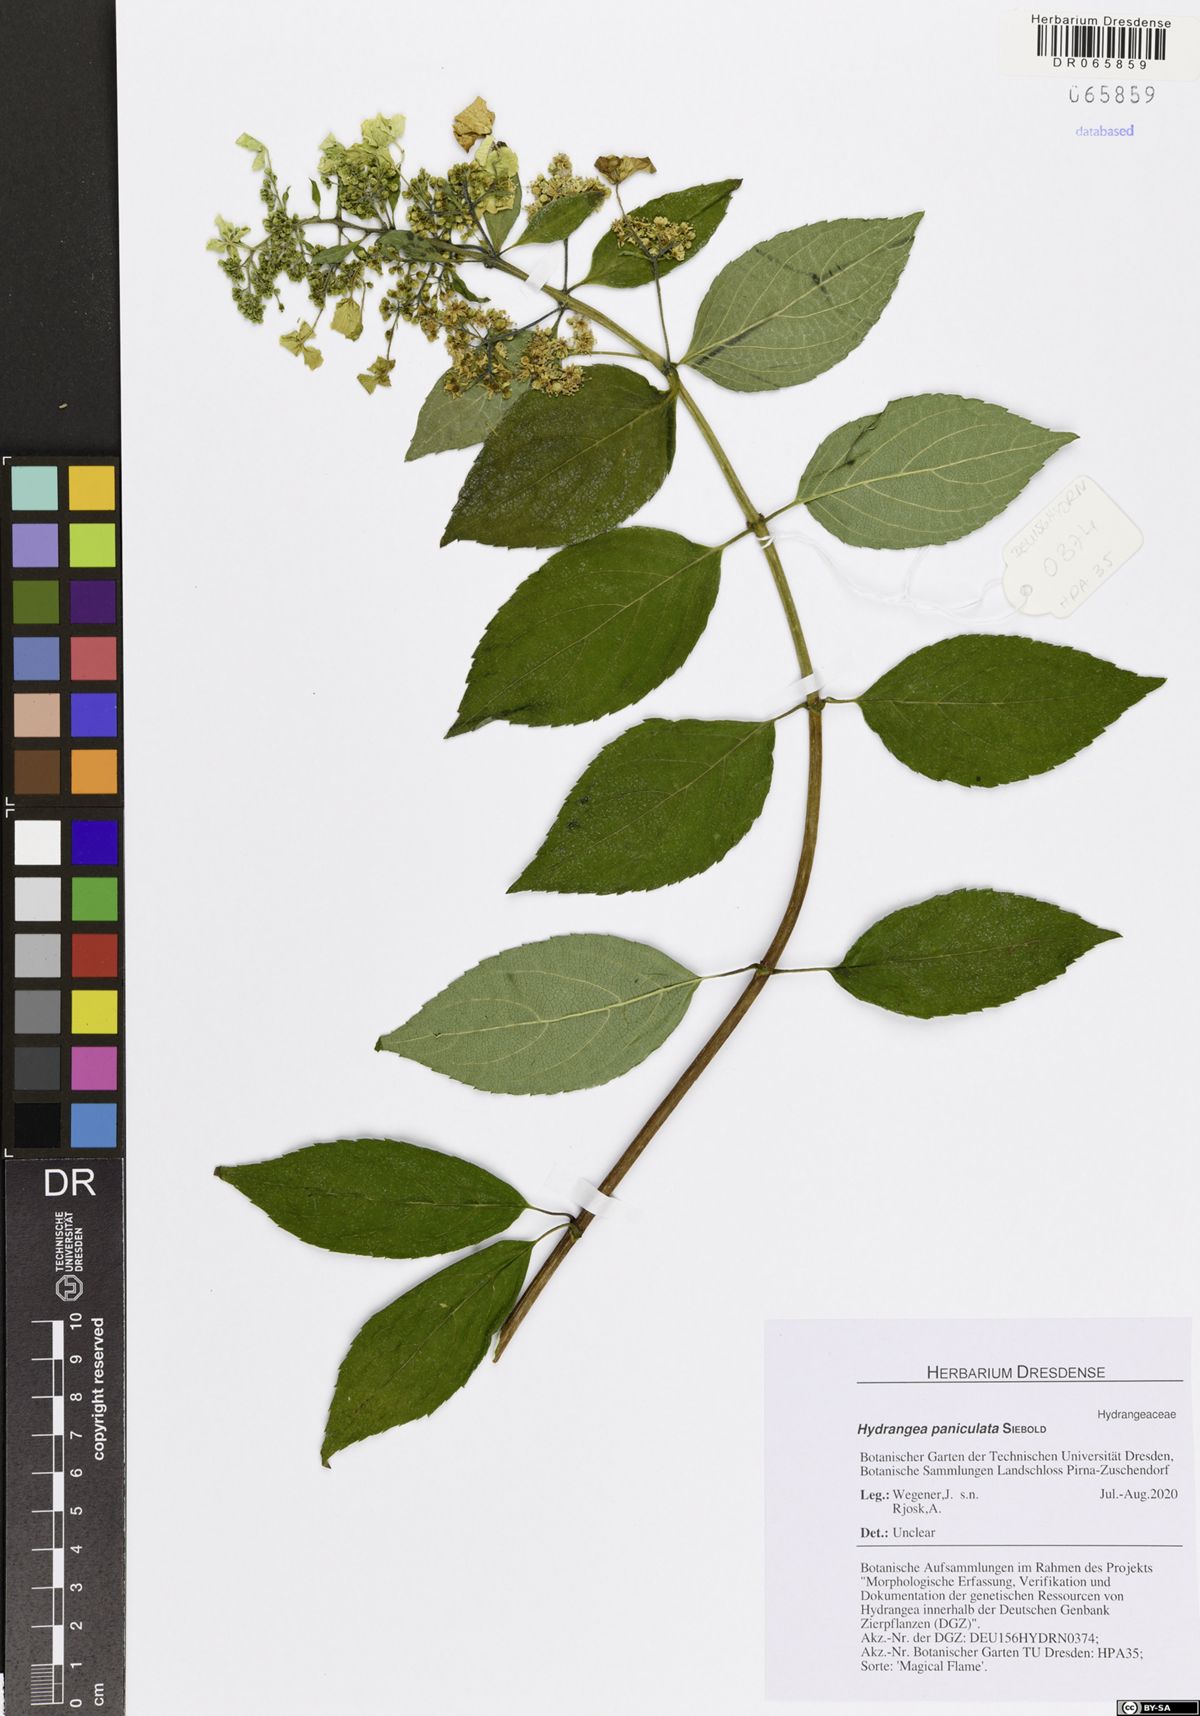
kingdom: Plantae
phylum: Tracheophyta
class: Magnoliopsida
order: Cornales
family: Hydrangeaceae
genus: Hydrangea
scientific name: Hydrangea paniculata
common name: Panicled hydrangea
